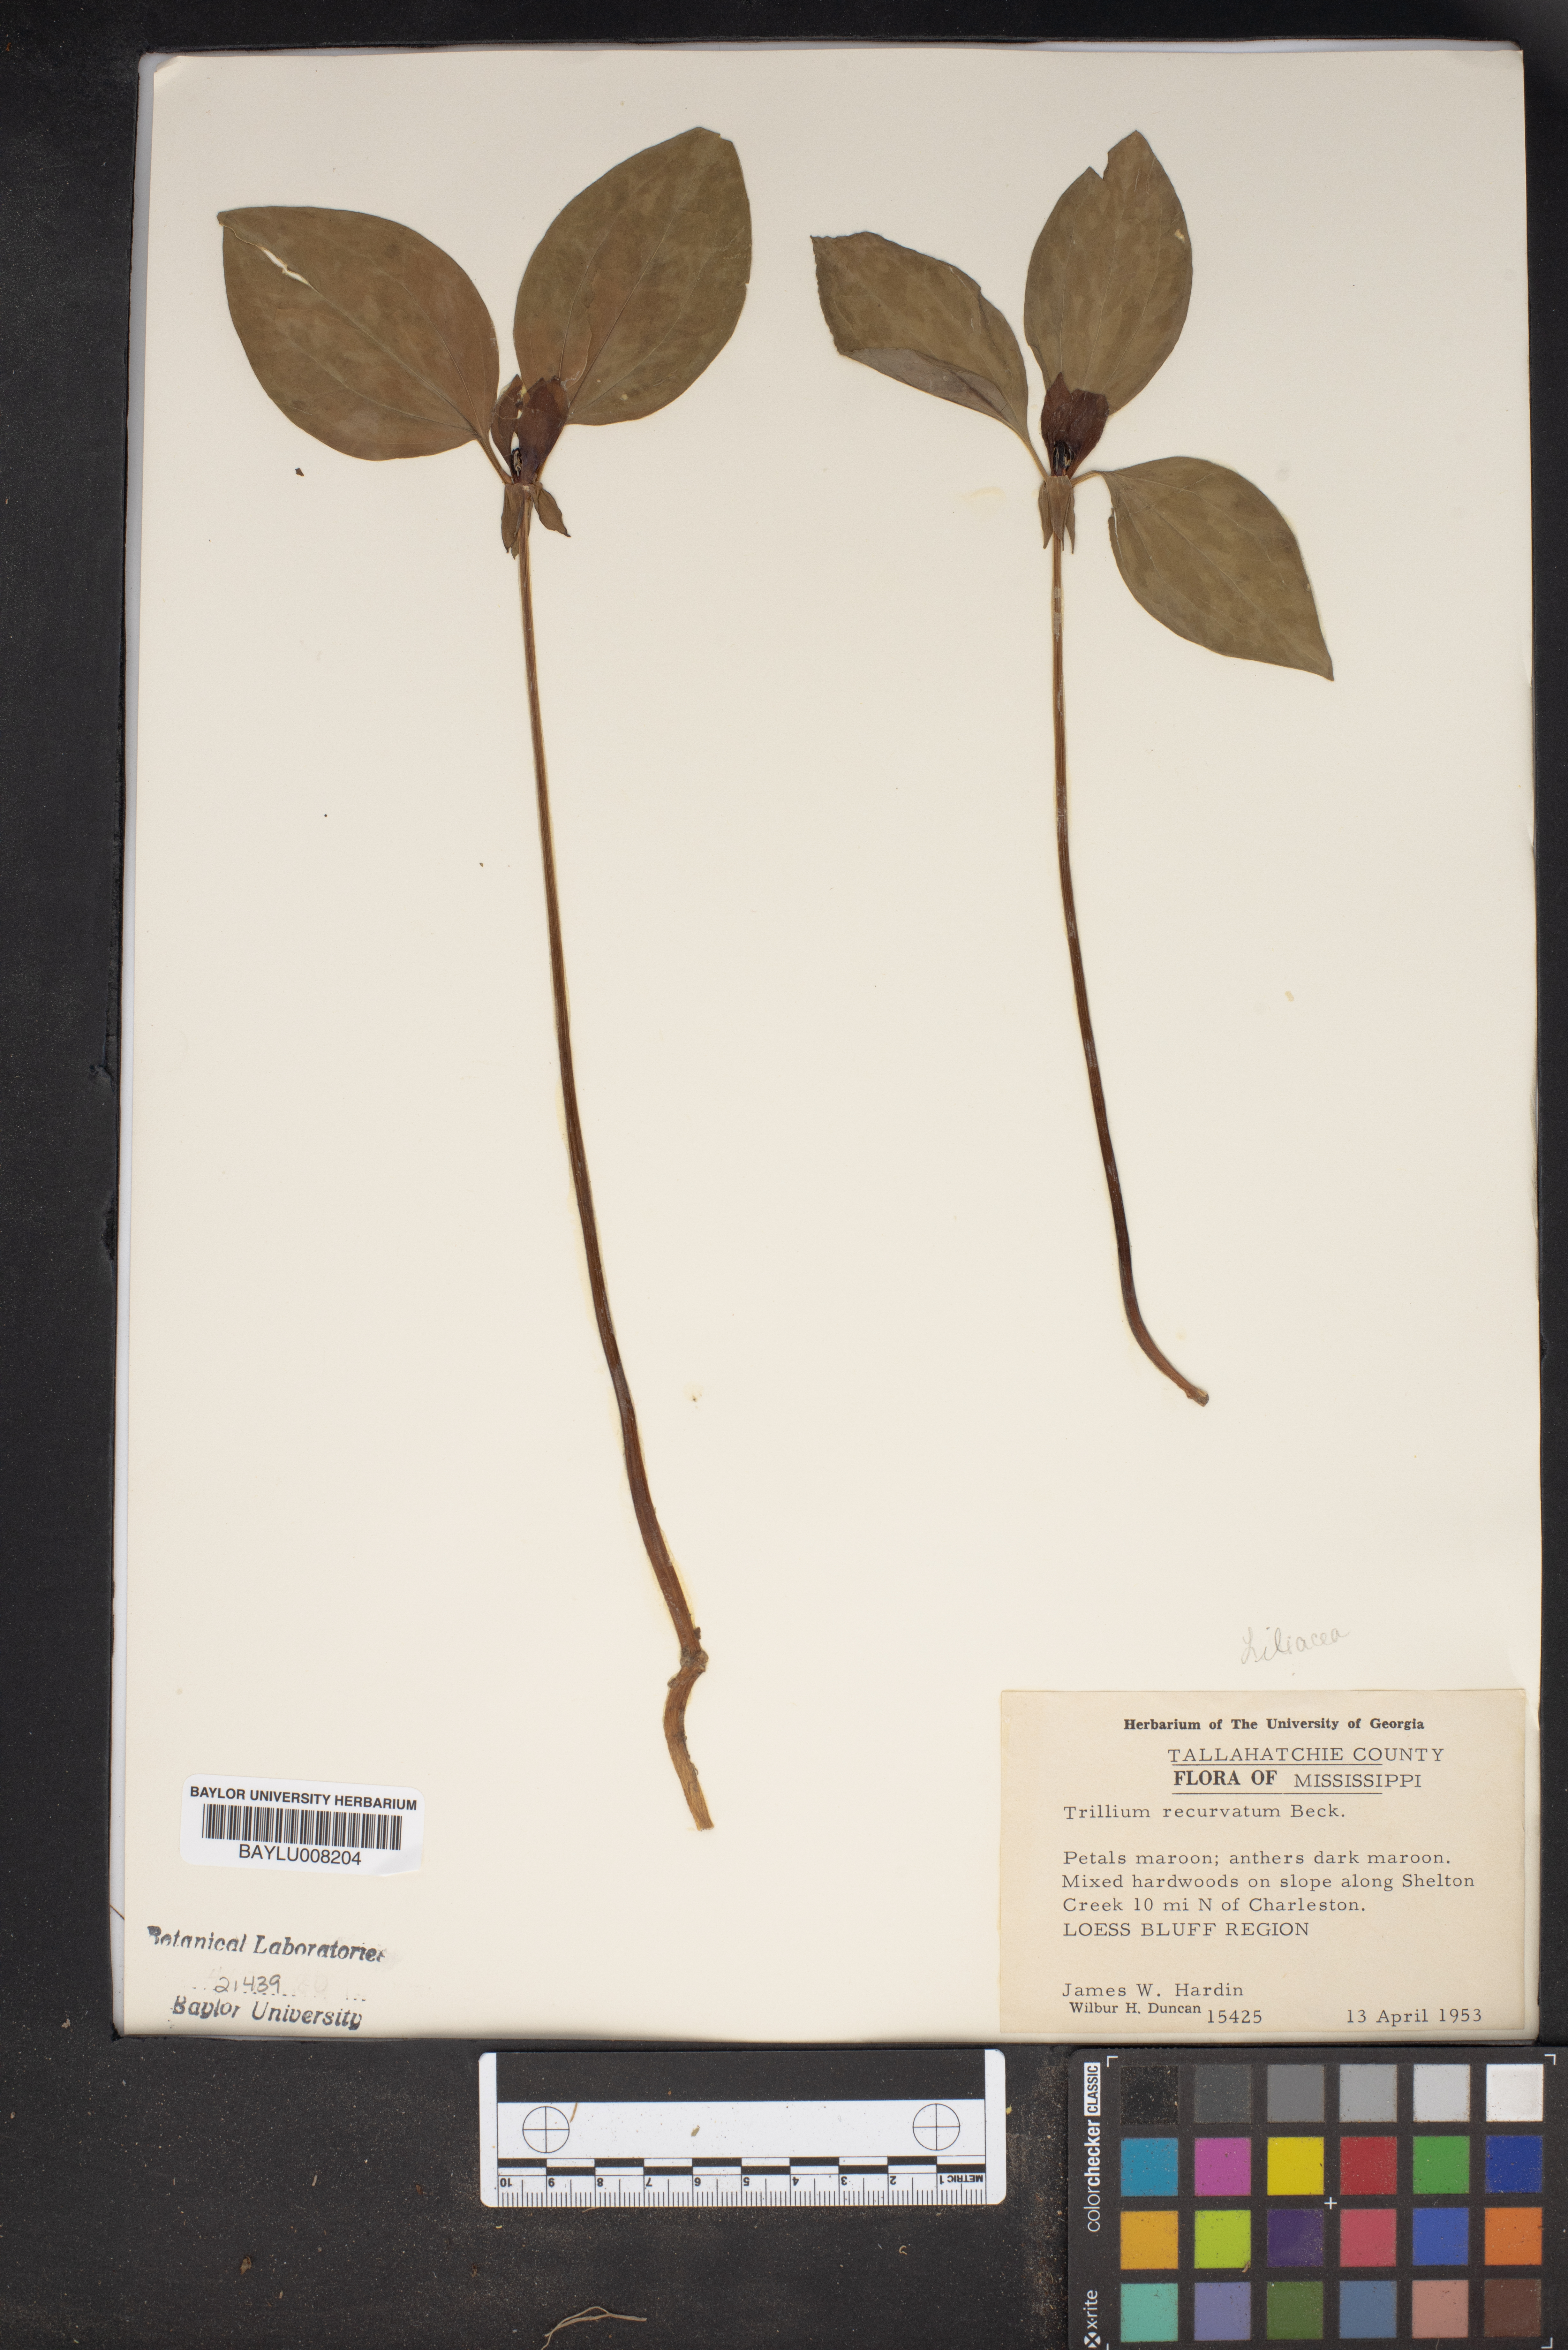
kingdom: Plantae
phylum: Tracheophyta
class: Liliopsida
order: Liliales
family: Melanthiaceae
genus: Trillium
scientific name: Trillium recurvatum
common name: Bloody butcher
